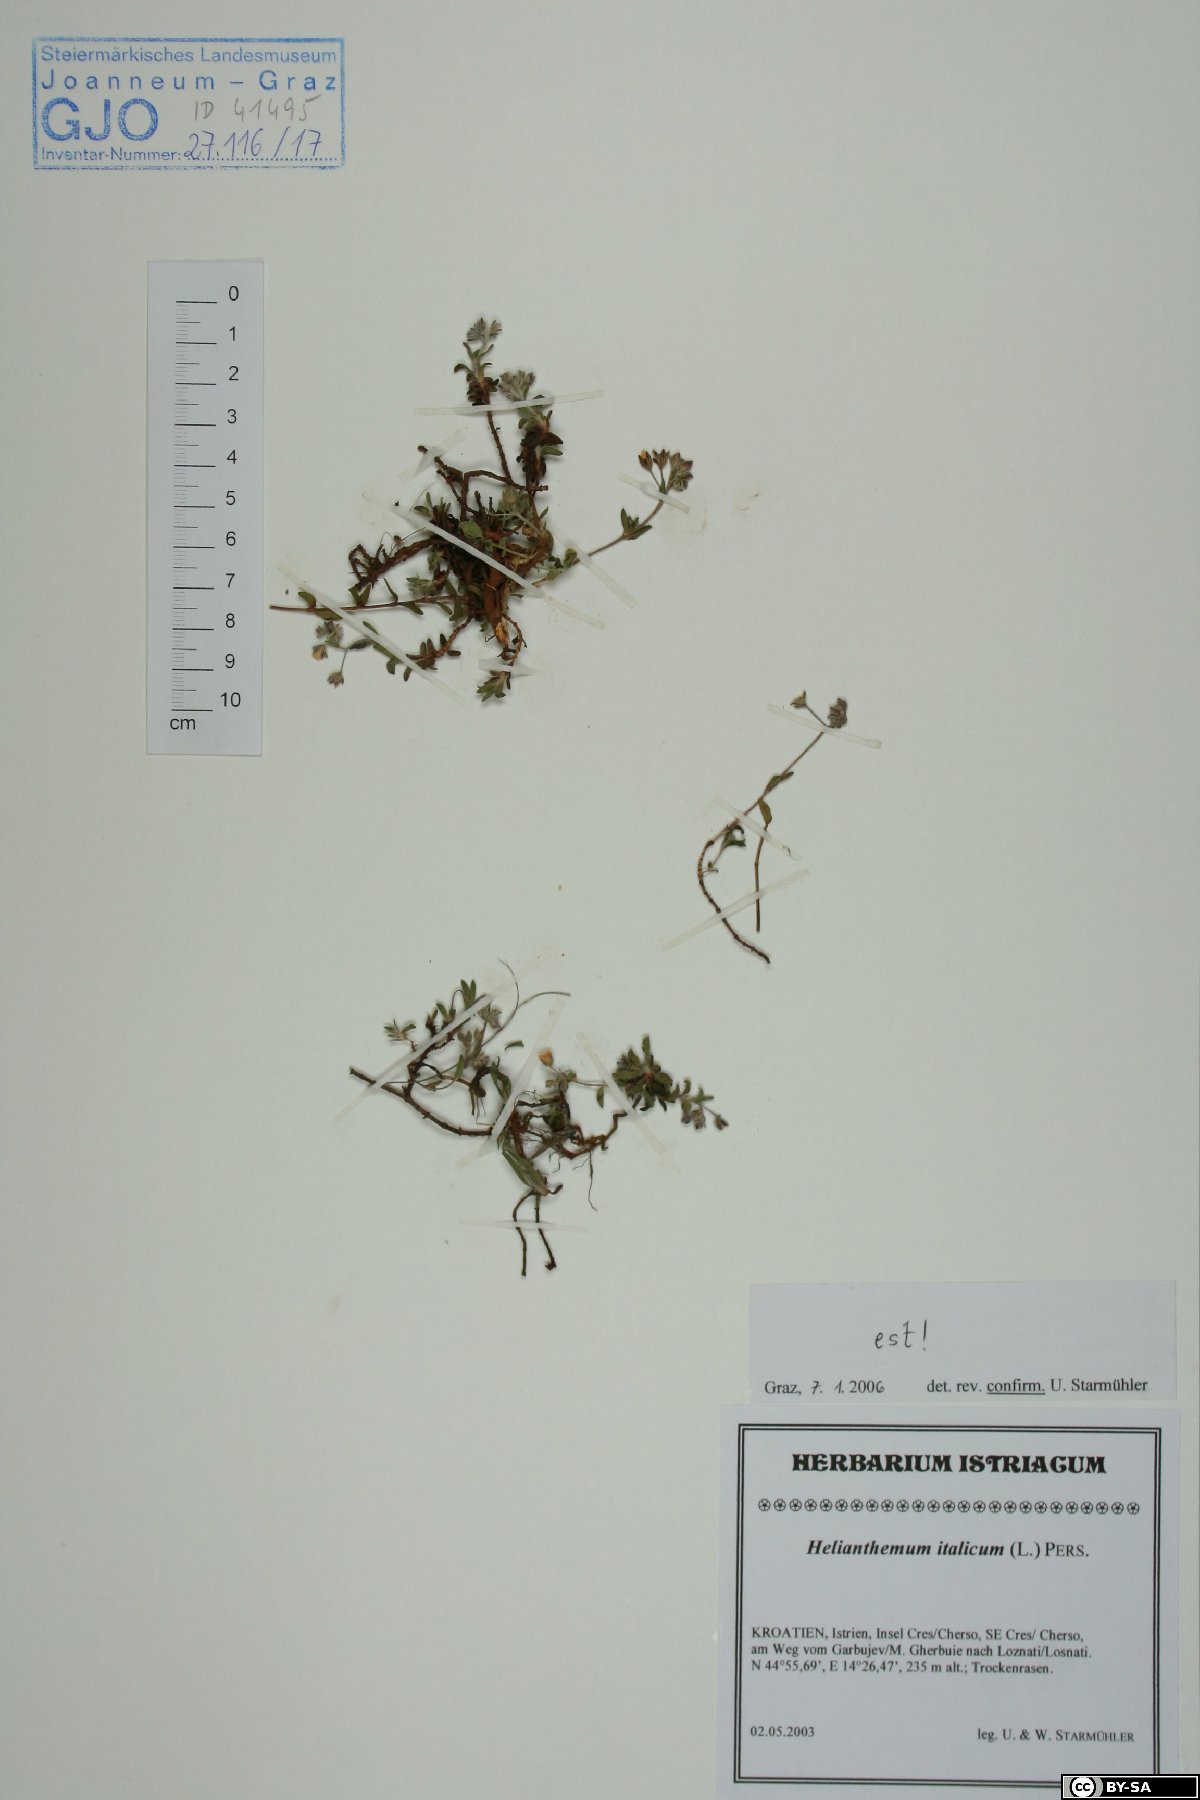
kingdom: Plantae
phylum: Tracheophyta
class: Magnoliopsida
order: Malvales
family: Cistaceae
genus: Helianthemum
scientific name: Helianthemum italicum
